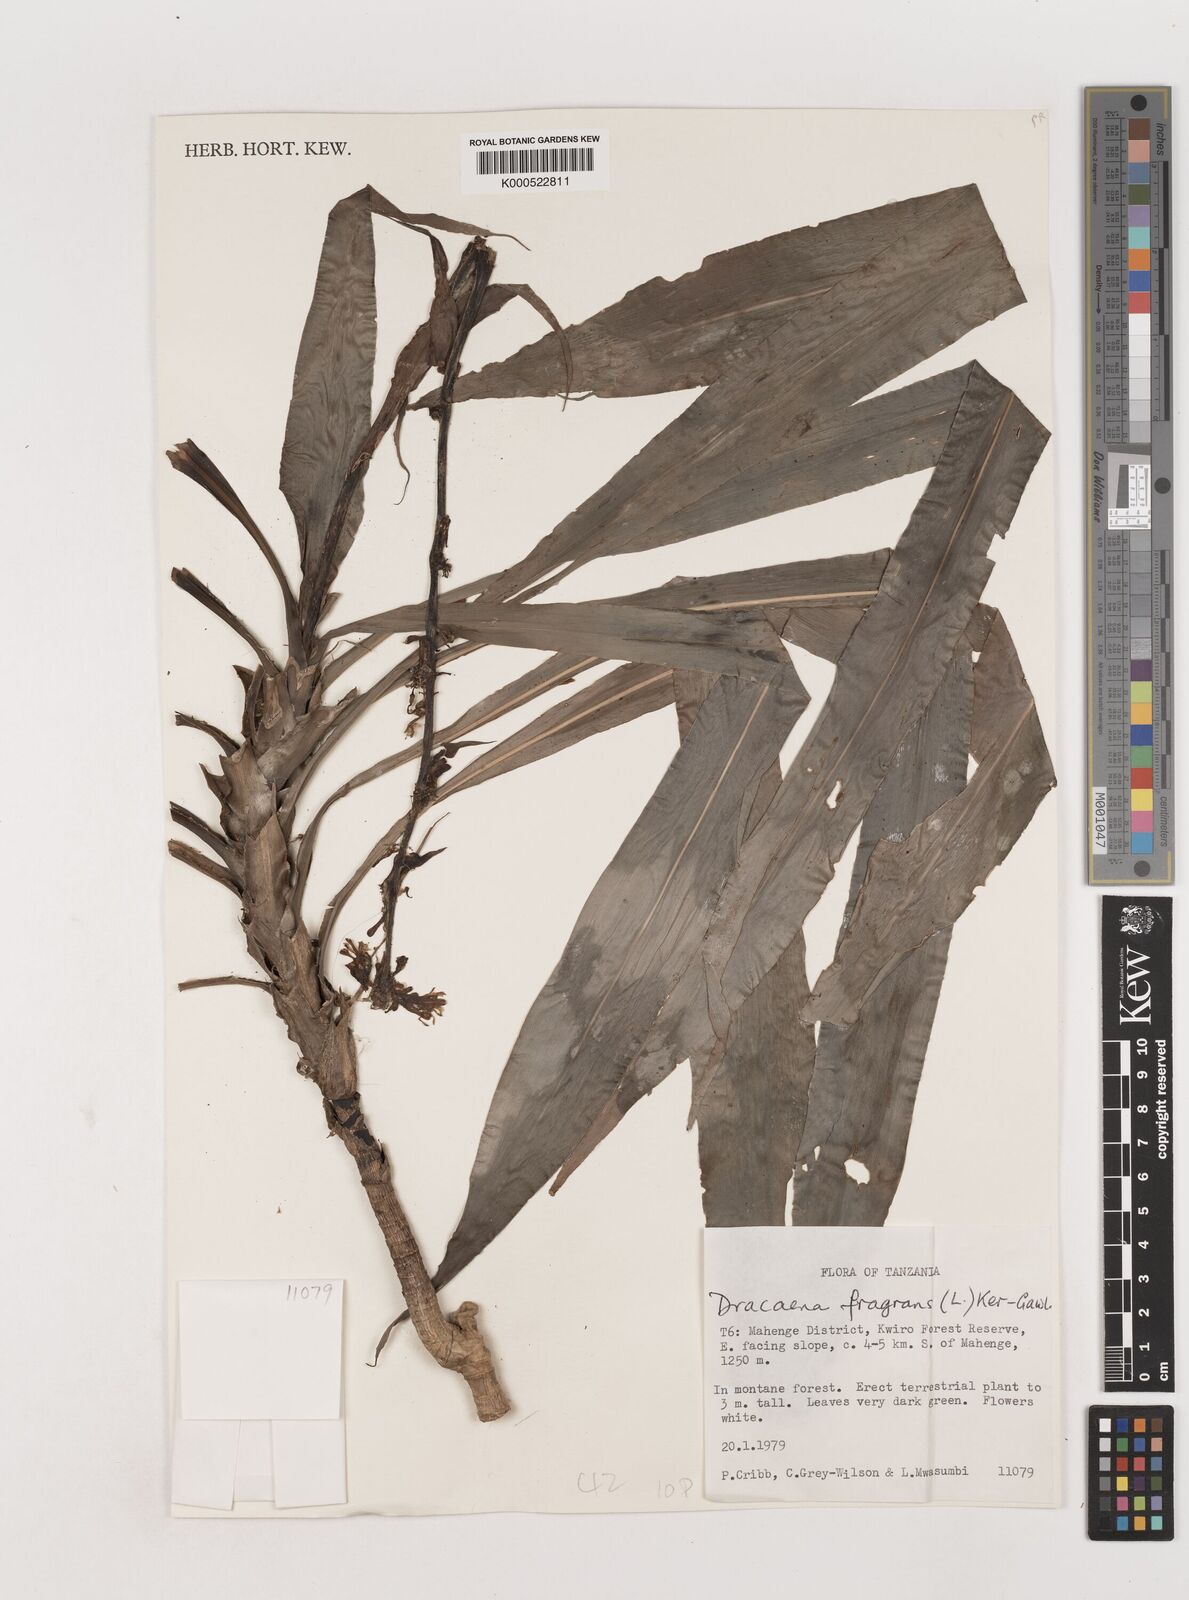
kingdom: Plantae
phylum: Tracheophyta
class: Liliopsida
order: Asparagales
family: Asparagaceae
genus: Dracaena
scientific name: Dracaena fragrans
